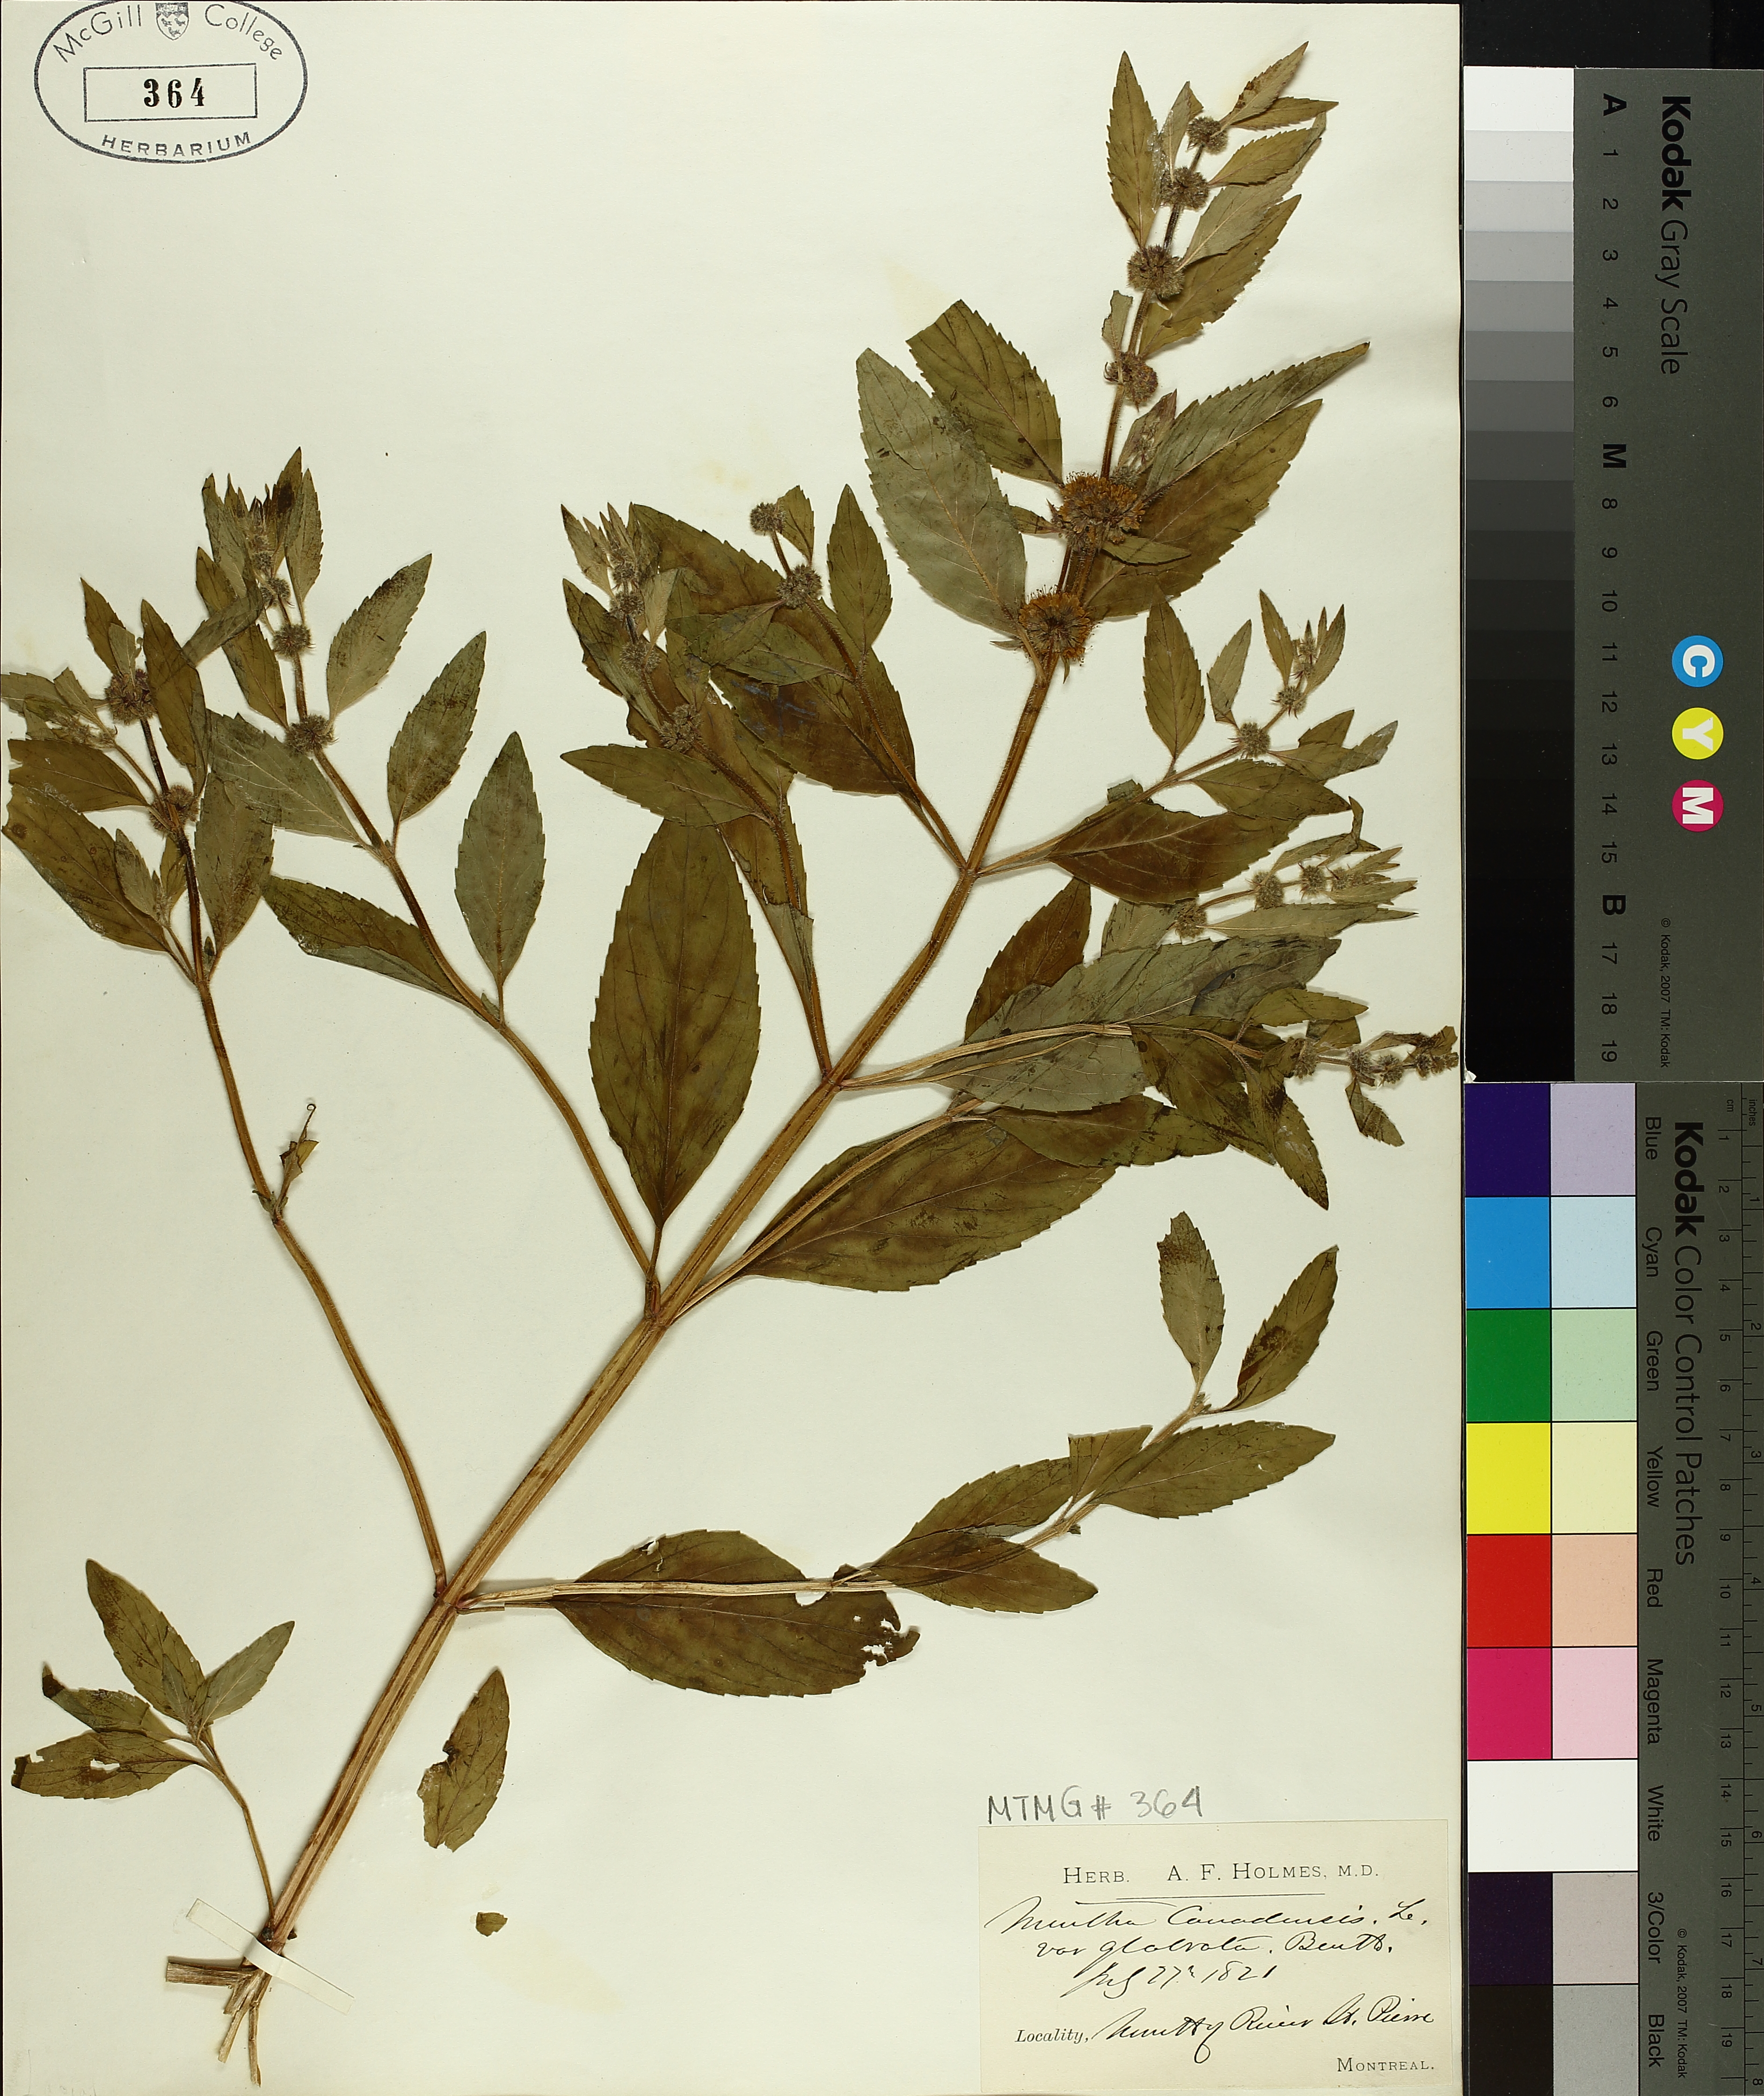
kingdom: Plantae
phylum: Tracheophyta
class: Magnoliopsida
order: Lamiales
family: Lamiaceae
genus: Mentha
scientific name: Mentha spicata
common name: Spearmint
